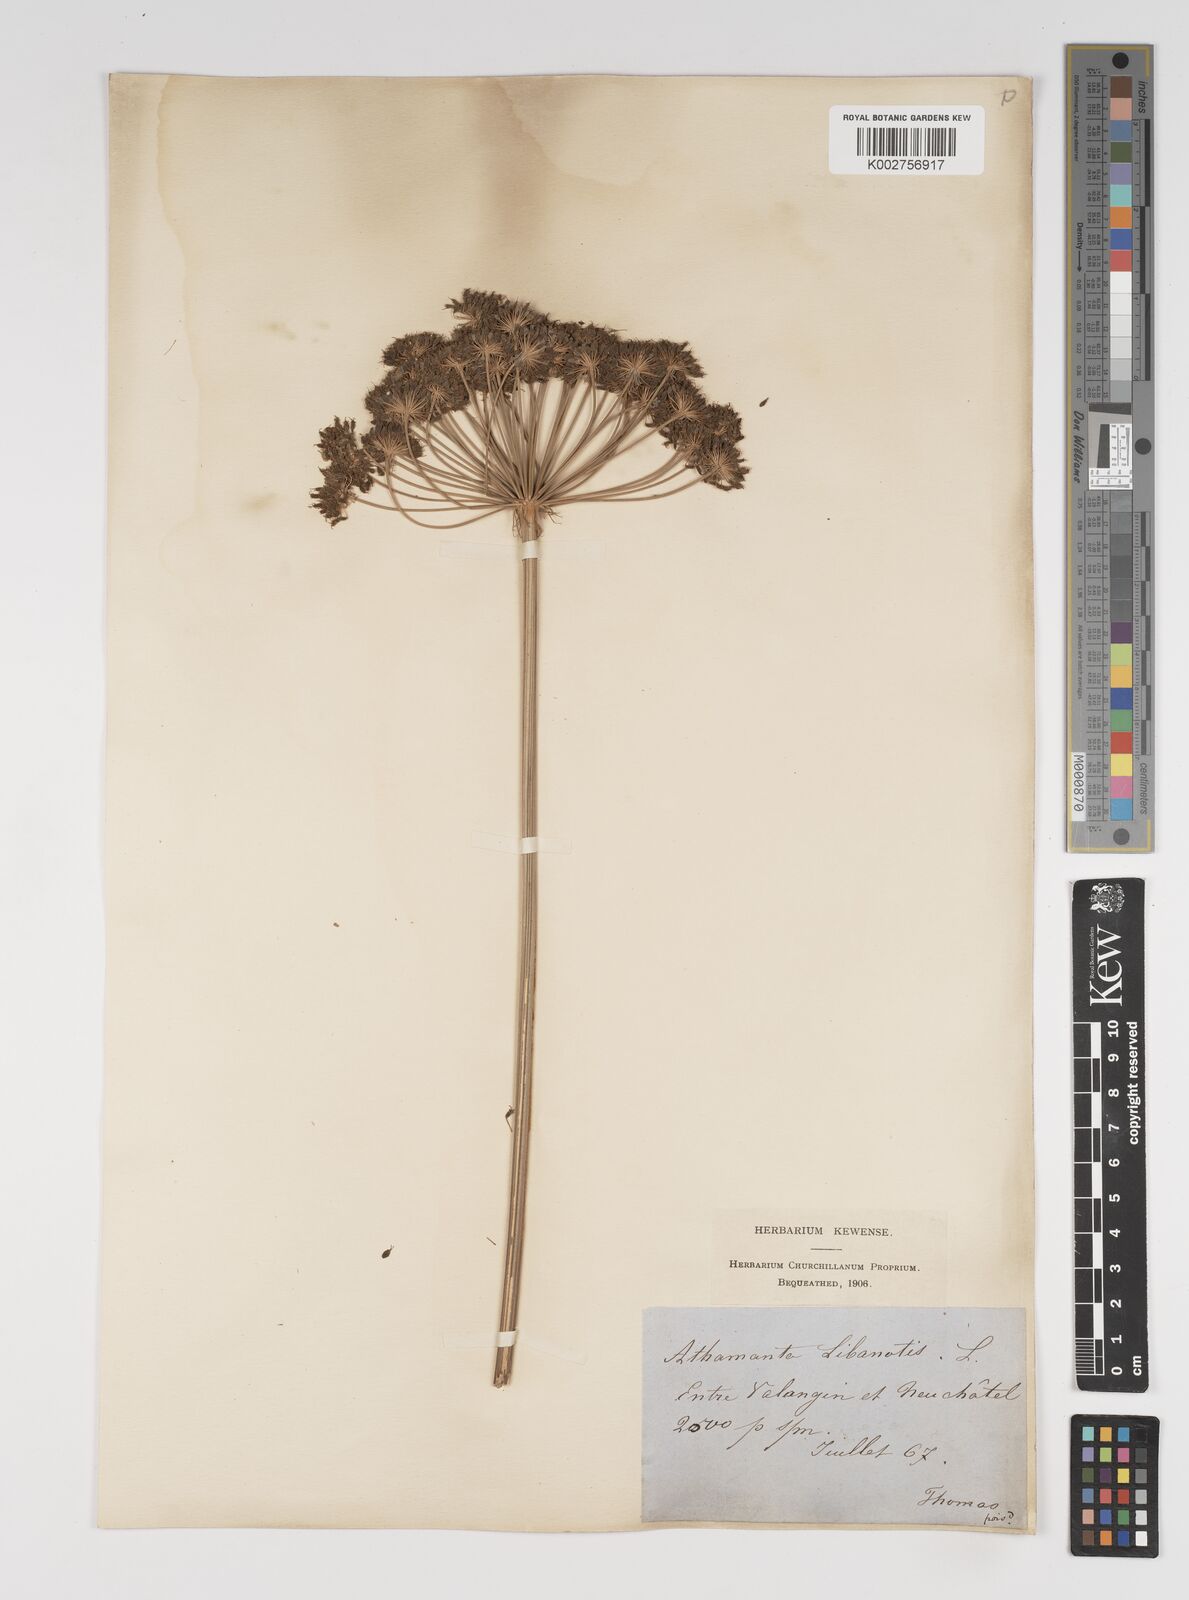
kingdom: Plantae
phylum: Tracheophyta
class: Magnoliopsida
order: Apiales
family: Apiaceae
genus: Seseli
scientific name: Seseli libanotis
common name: Mooncarrot
